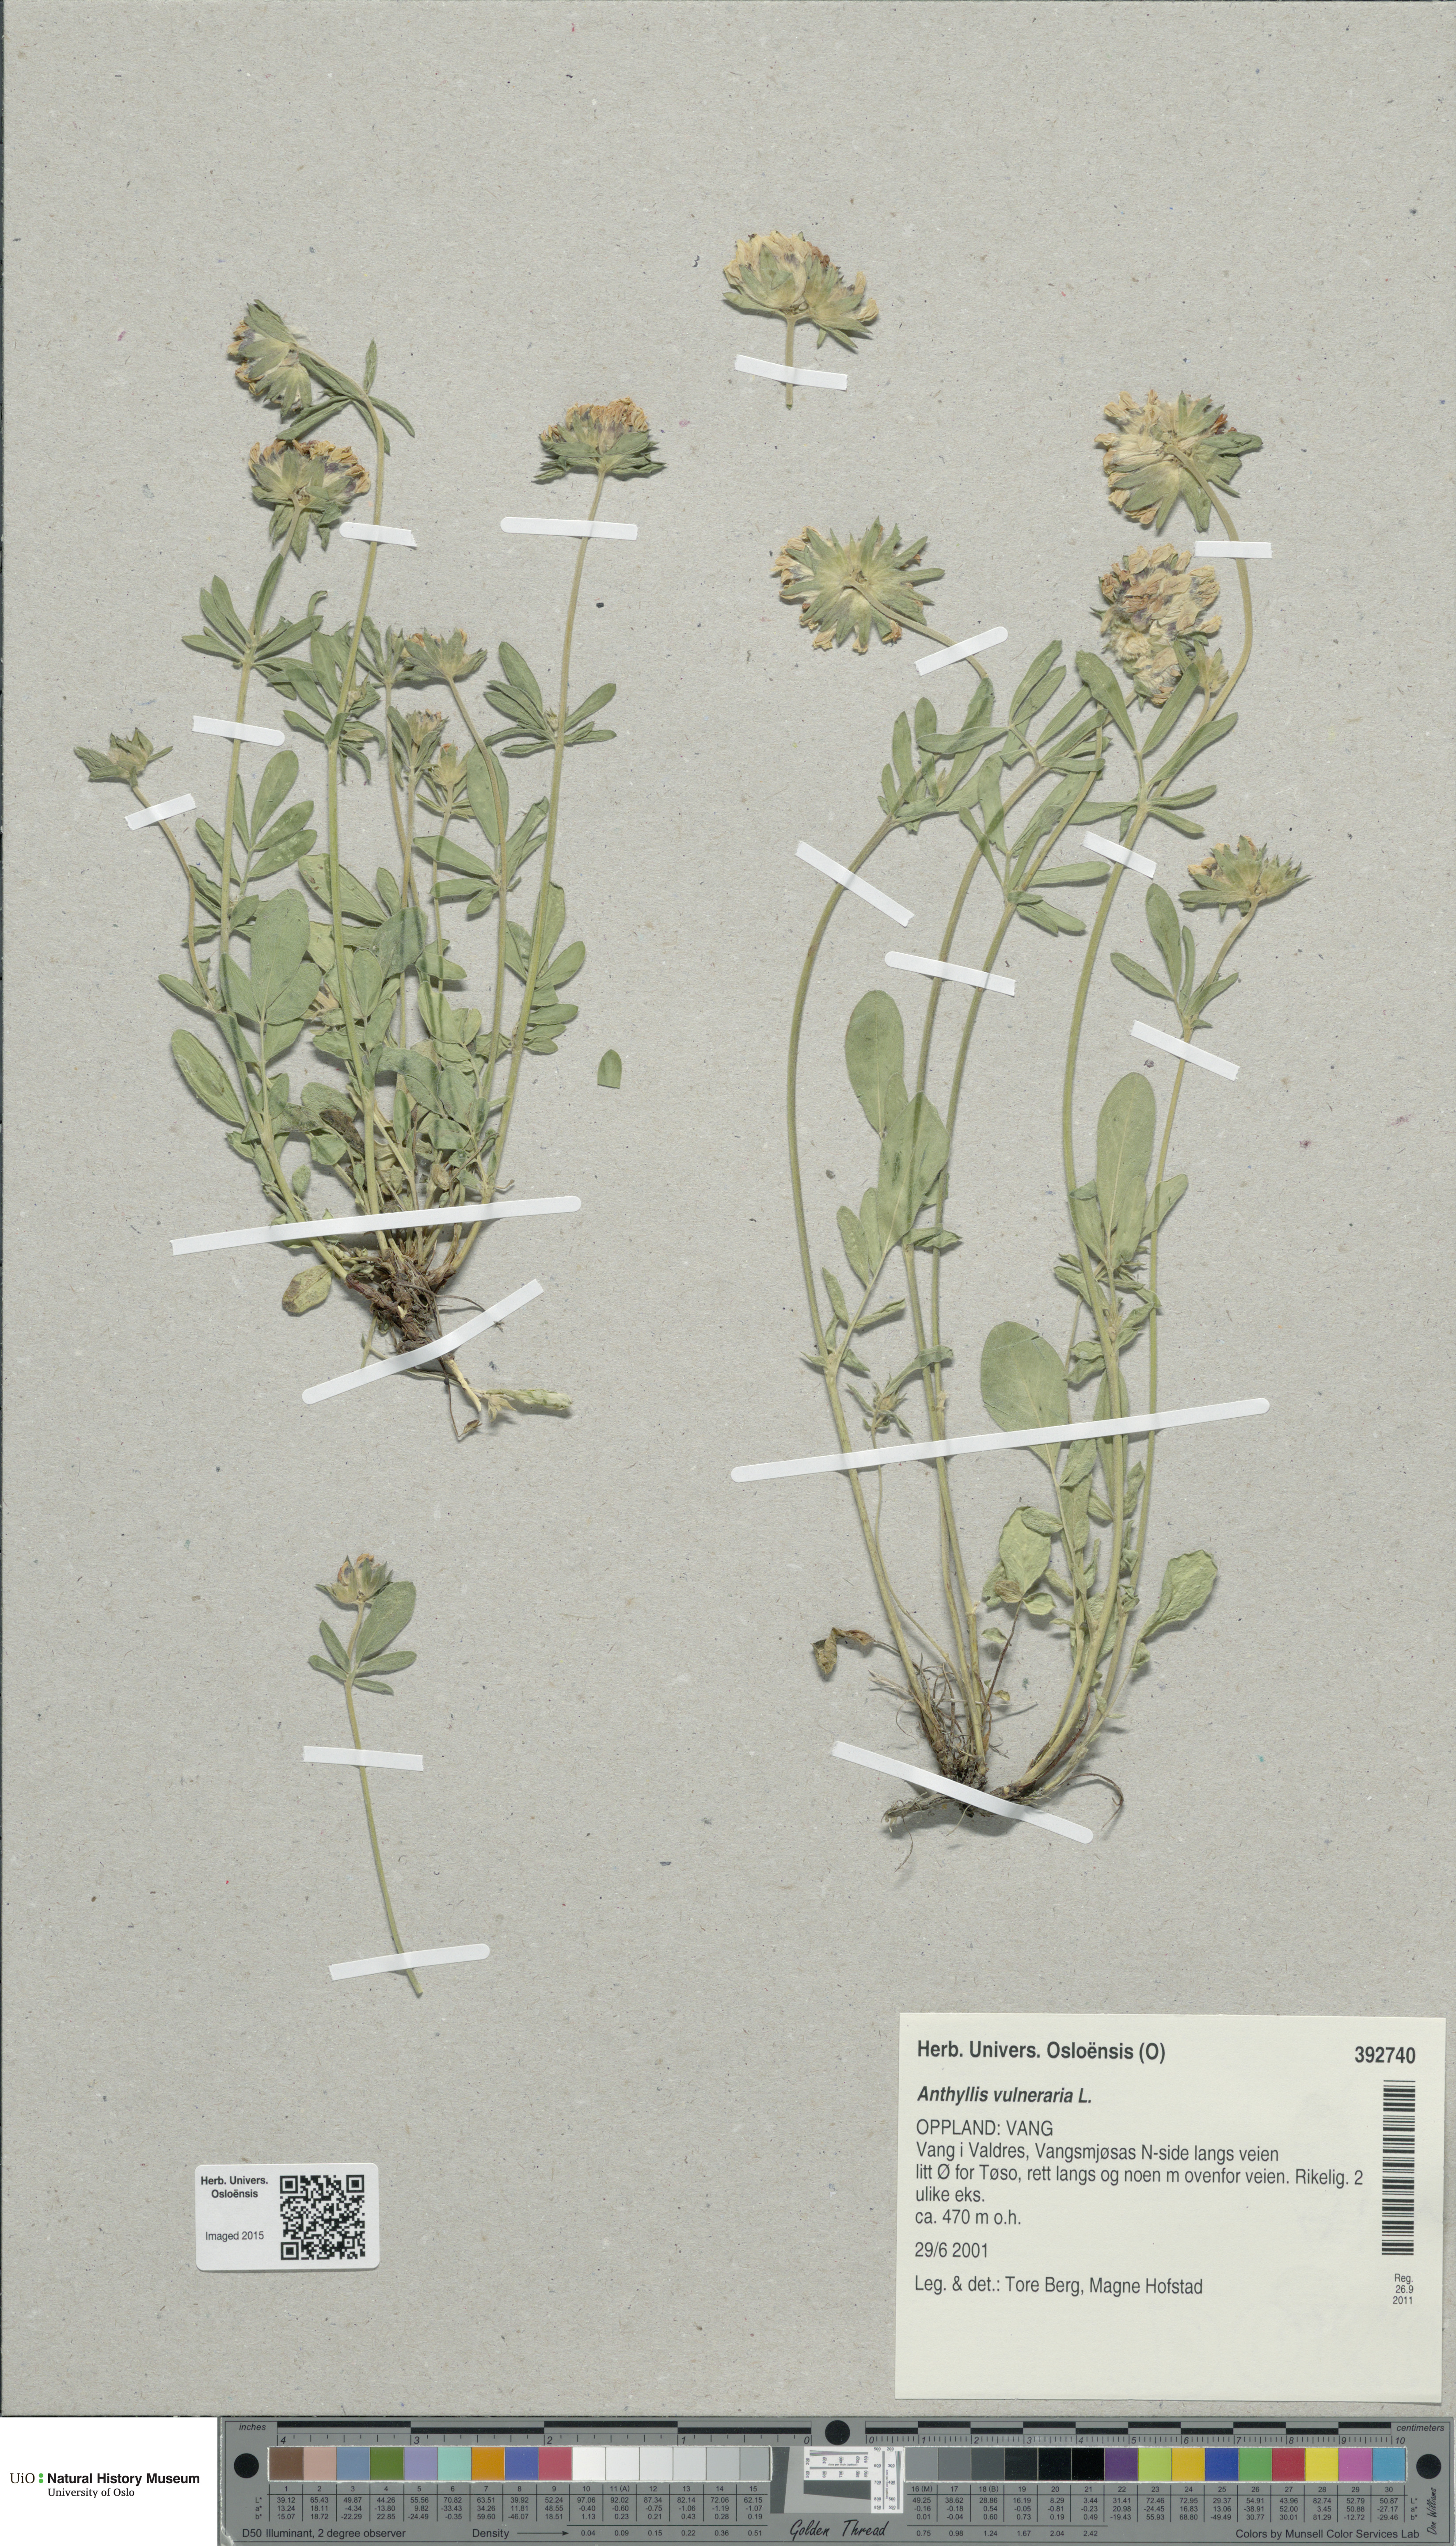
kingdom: Plantae
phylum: Tracheophyta
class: Magnoliopsida
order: Fabales
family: Fabaceae
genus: Anthyllis
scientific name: Anthyllis vulneraria
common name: Kidney vetch
